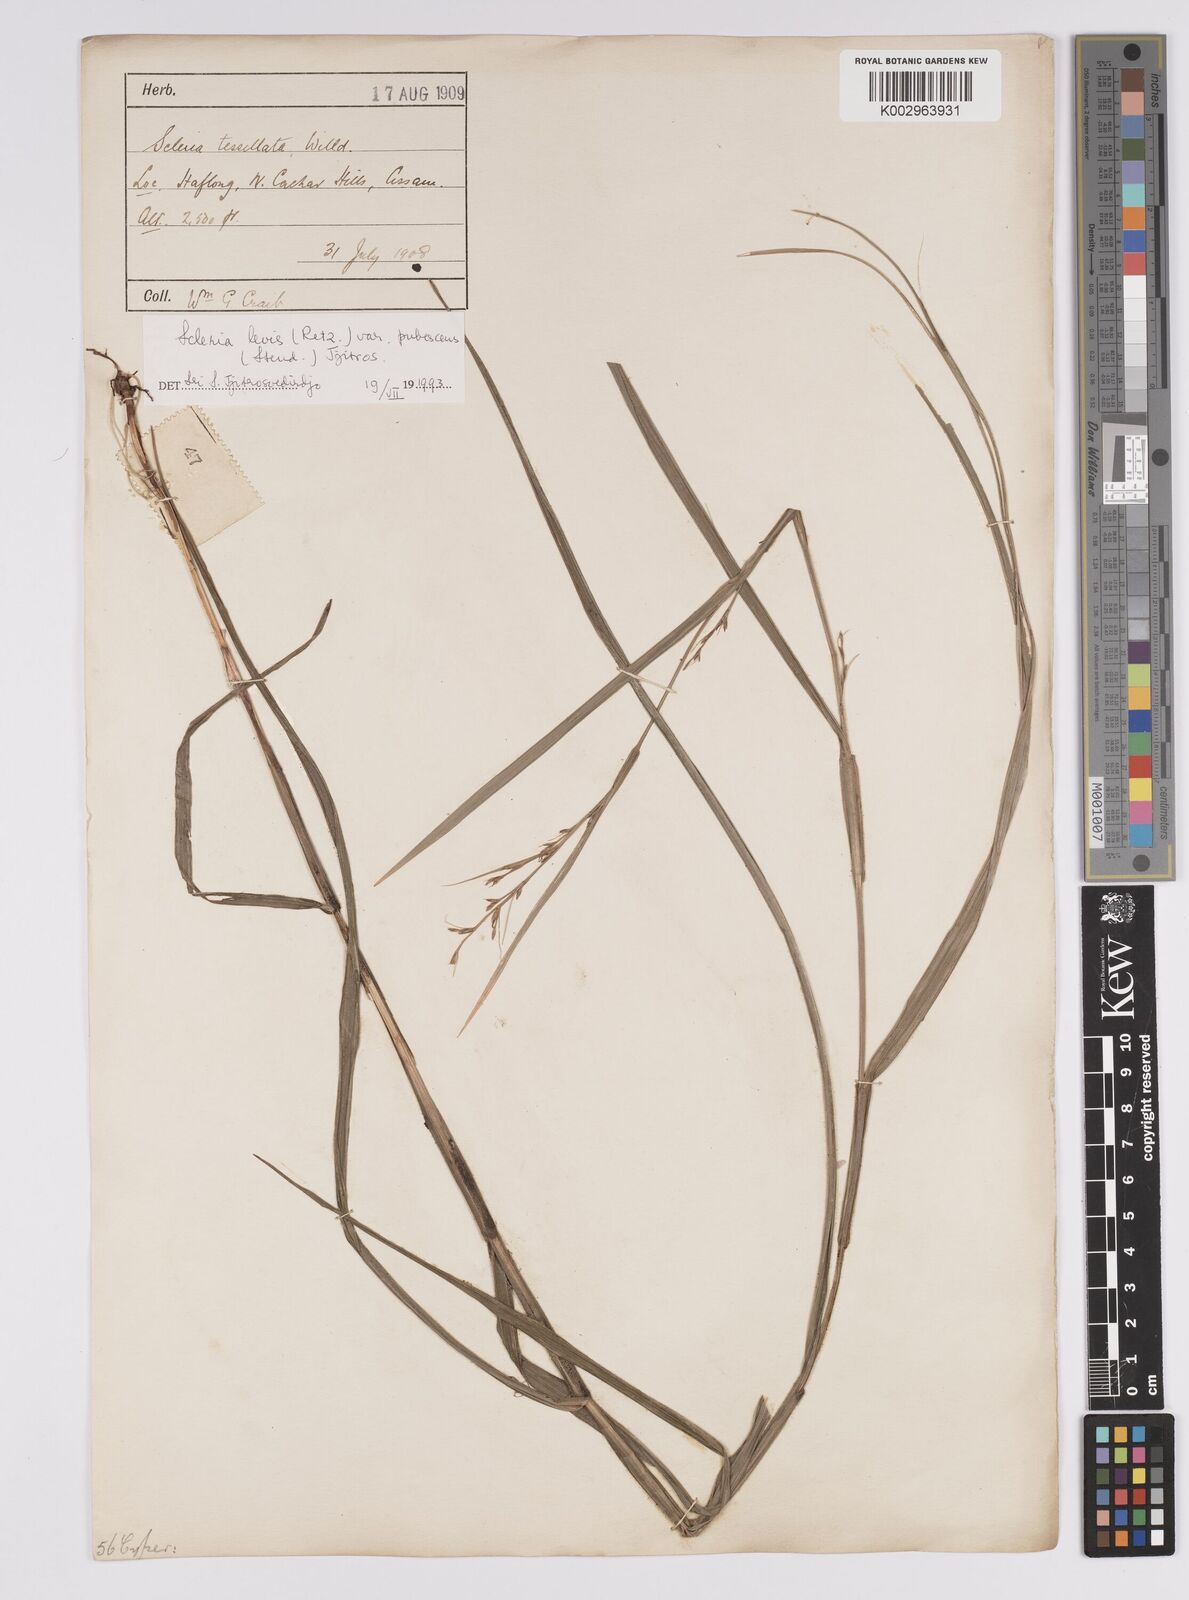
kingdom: Plantae
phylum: Tracheophyta
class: Liliopsida
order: Poales
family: Cyperaceae
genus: Scleria
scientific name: Scleria
